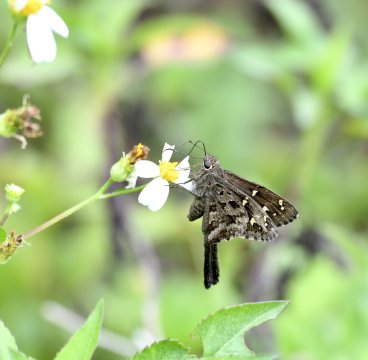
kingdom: Animalia
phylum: Arthropoda
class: Insecta
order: Lepidoptera
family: Hesperiidae
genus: Urbanus
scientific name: Urbanus dorantes
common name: Dorantes Longtail
